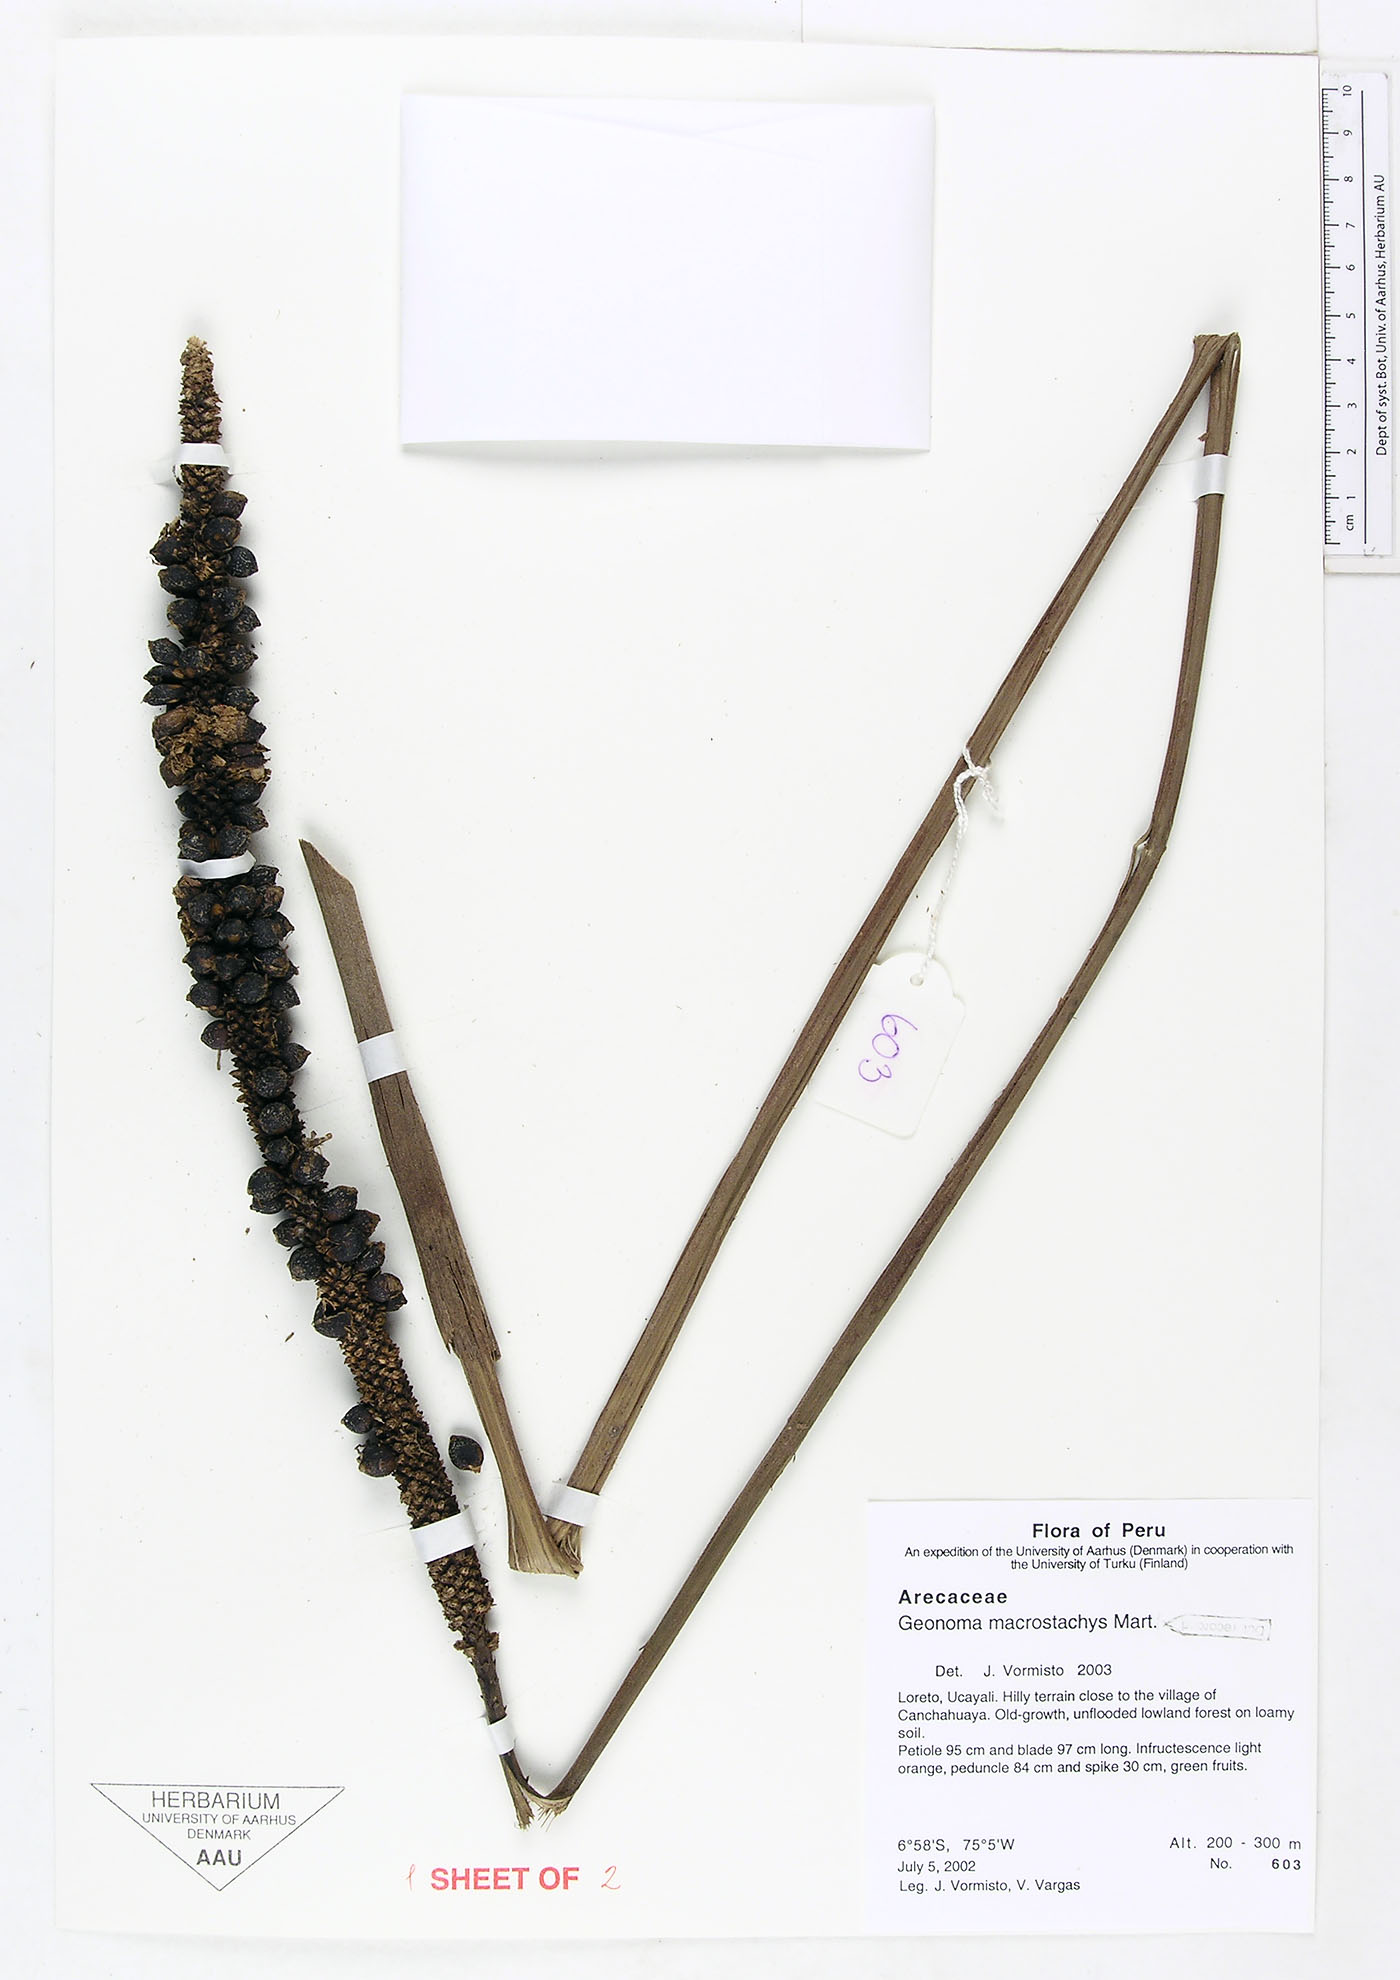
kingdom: Plantae
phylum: Tracheophyta
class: Liliopsida
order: Arecales
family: Arecaceae
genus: Geonoma
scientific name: Geonoma macrostachys
